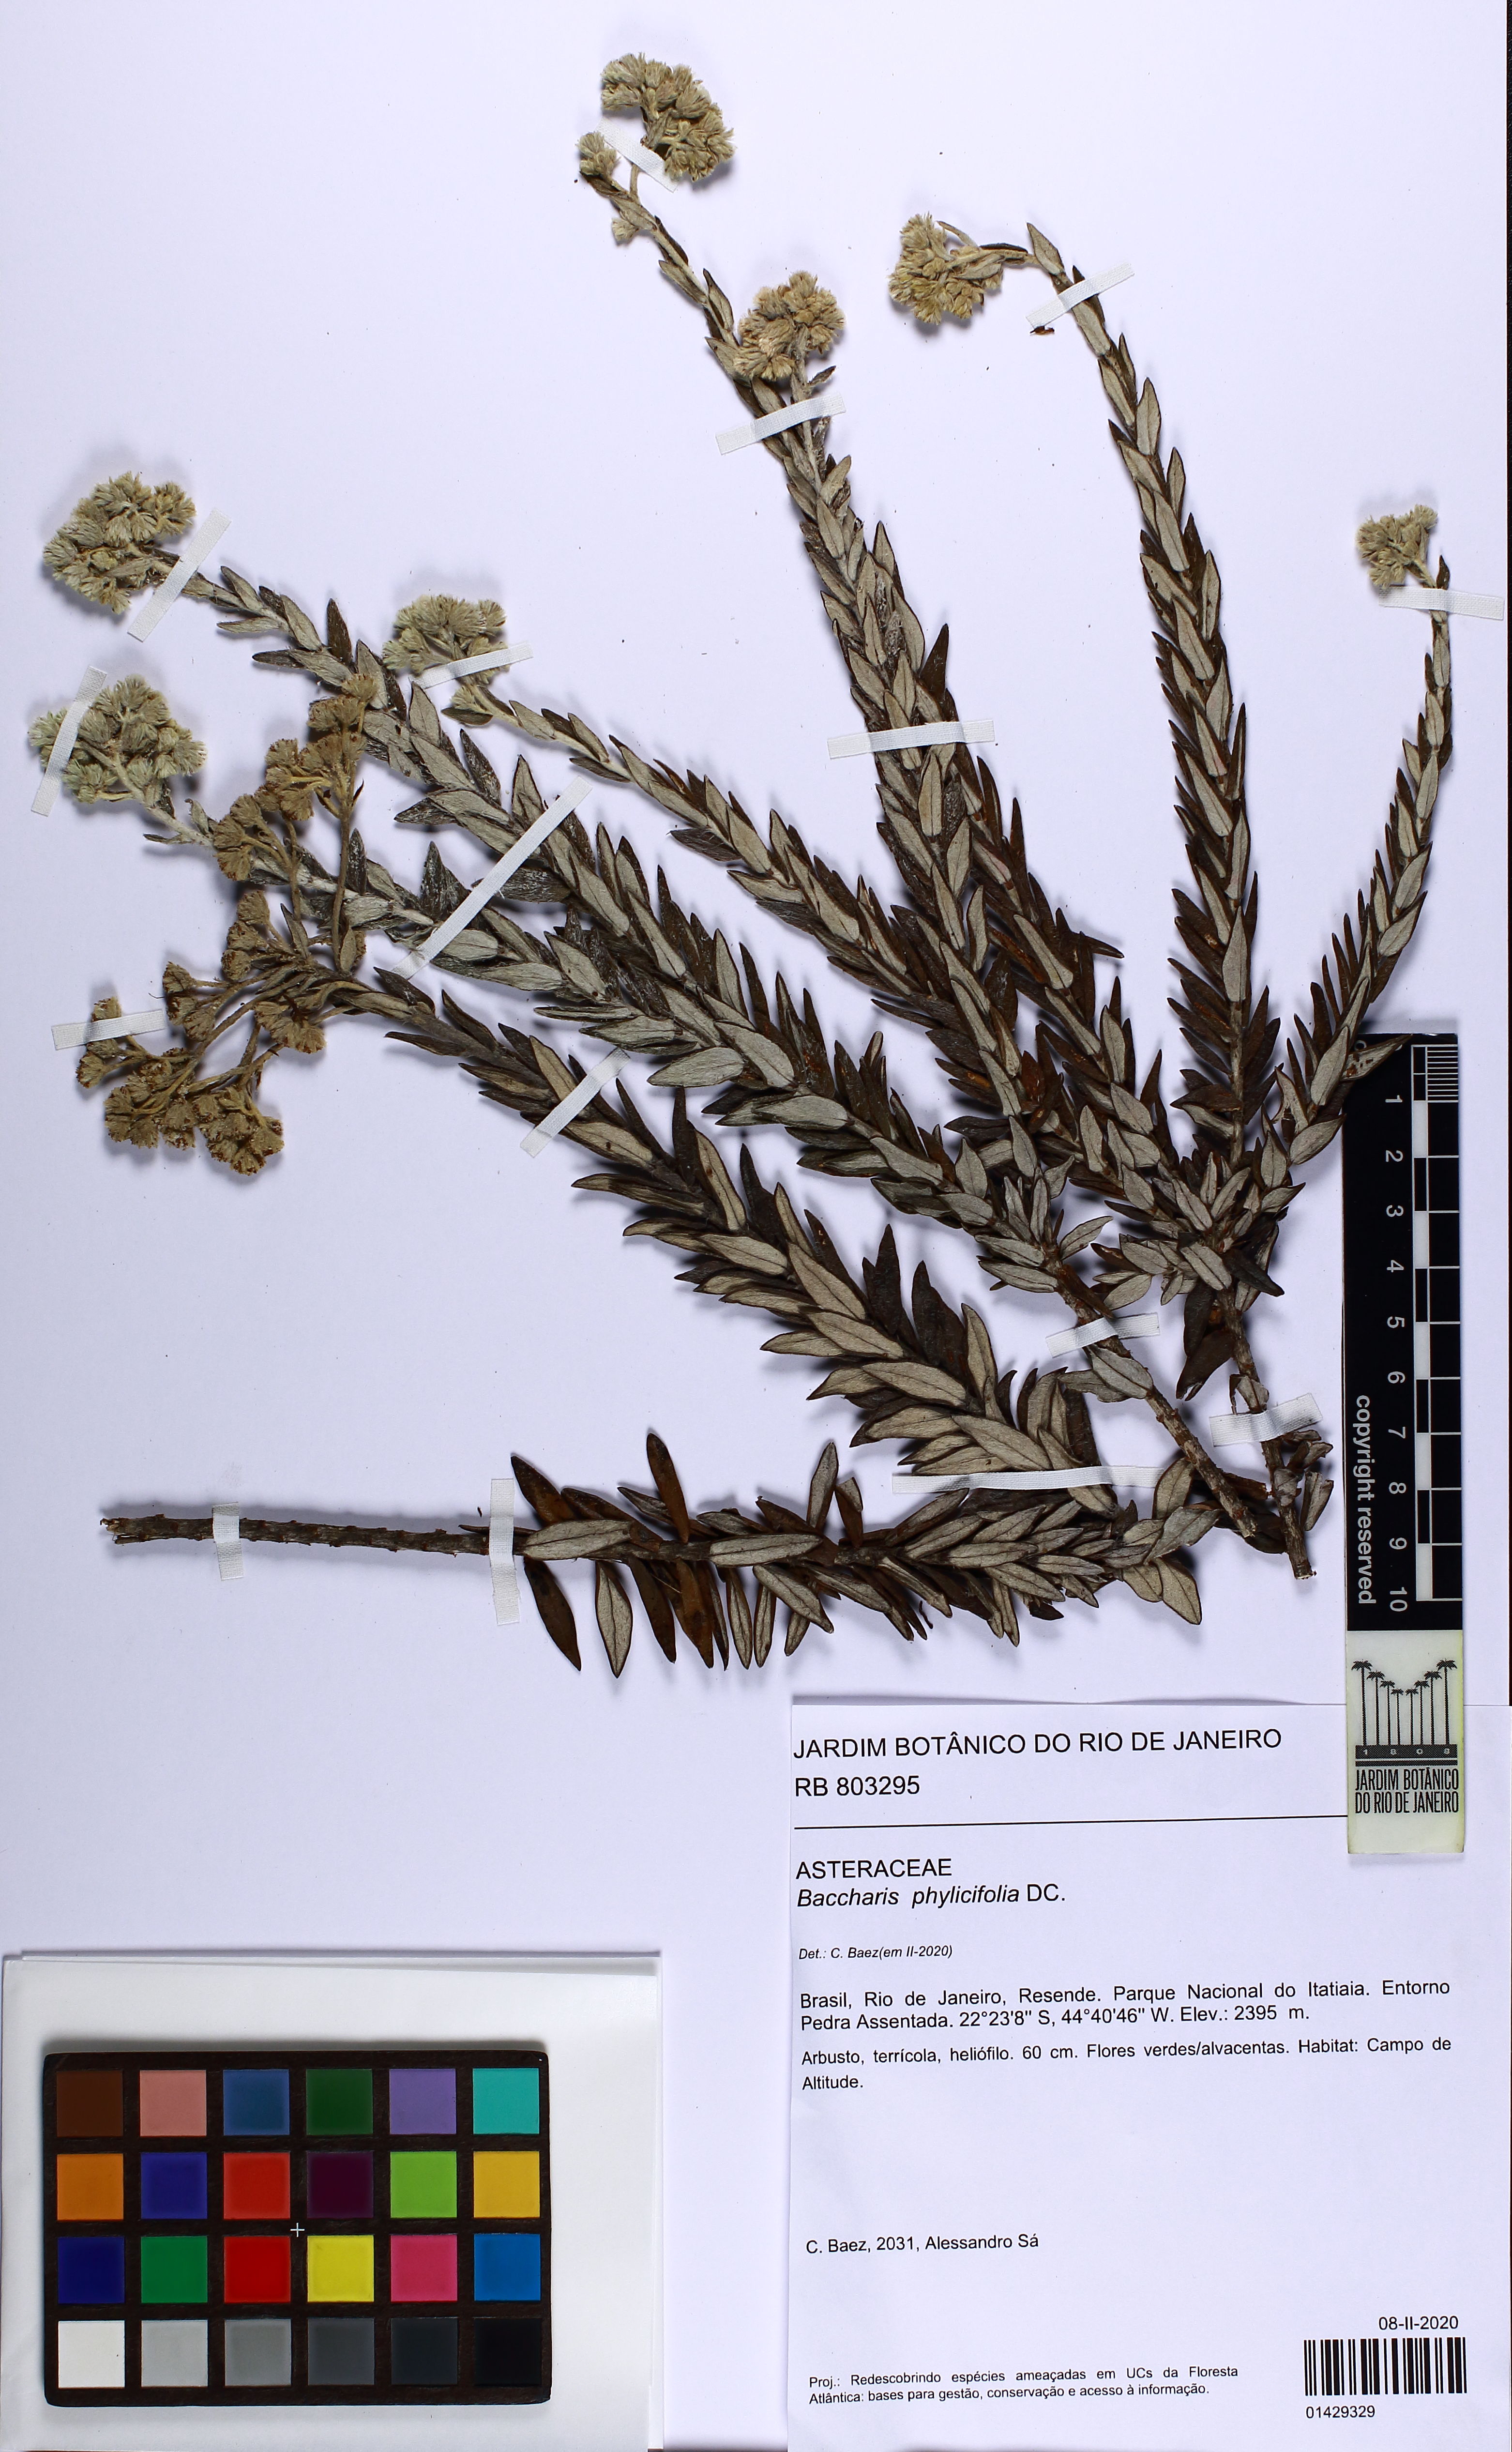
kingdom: Plantae
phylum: Tracheophyta
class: Magnoliopsida
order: Asterales
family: Asteraceae
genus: Baccharis
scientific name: Baccharis phylicifolia
